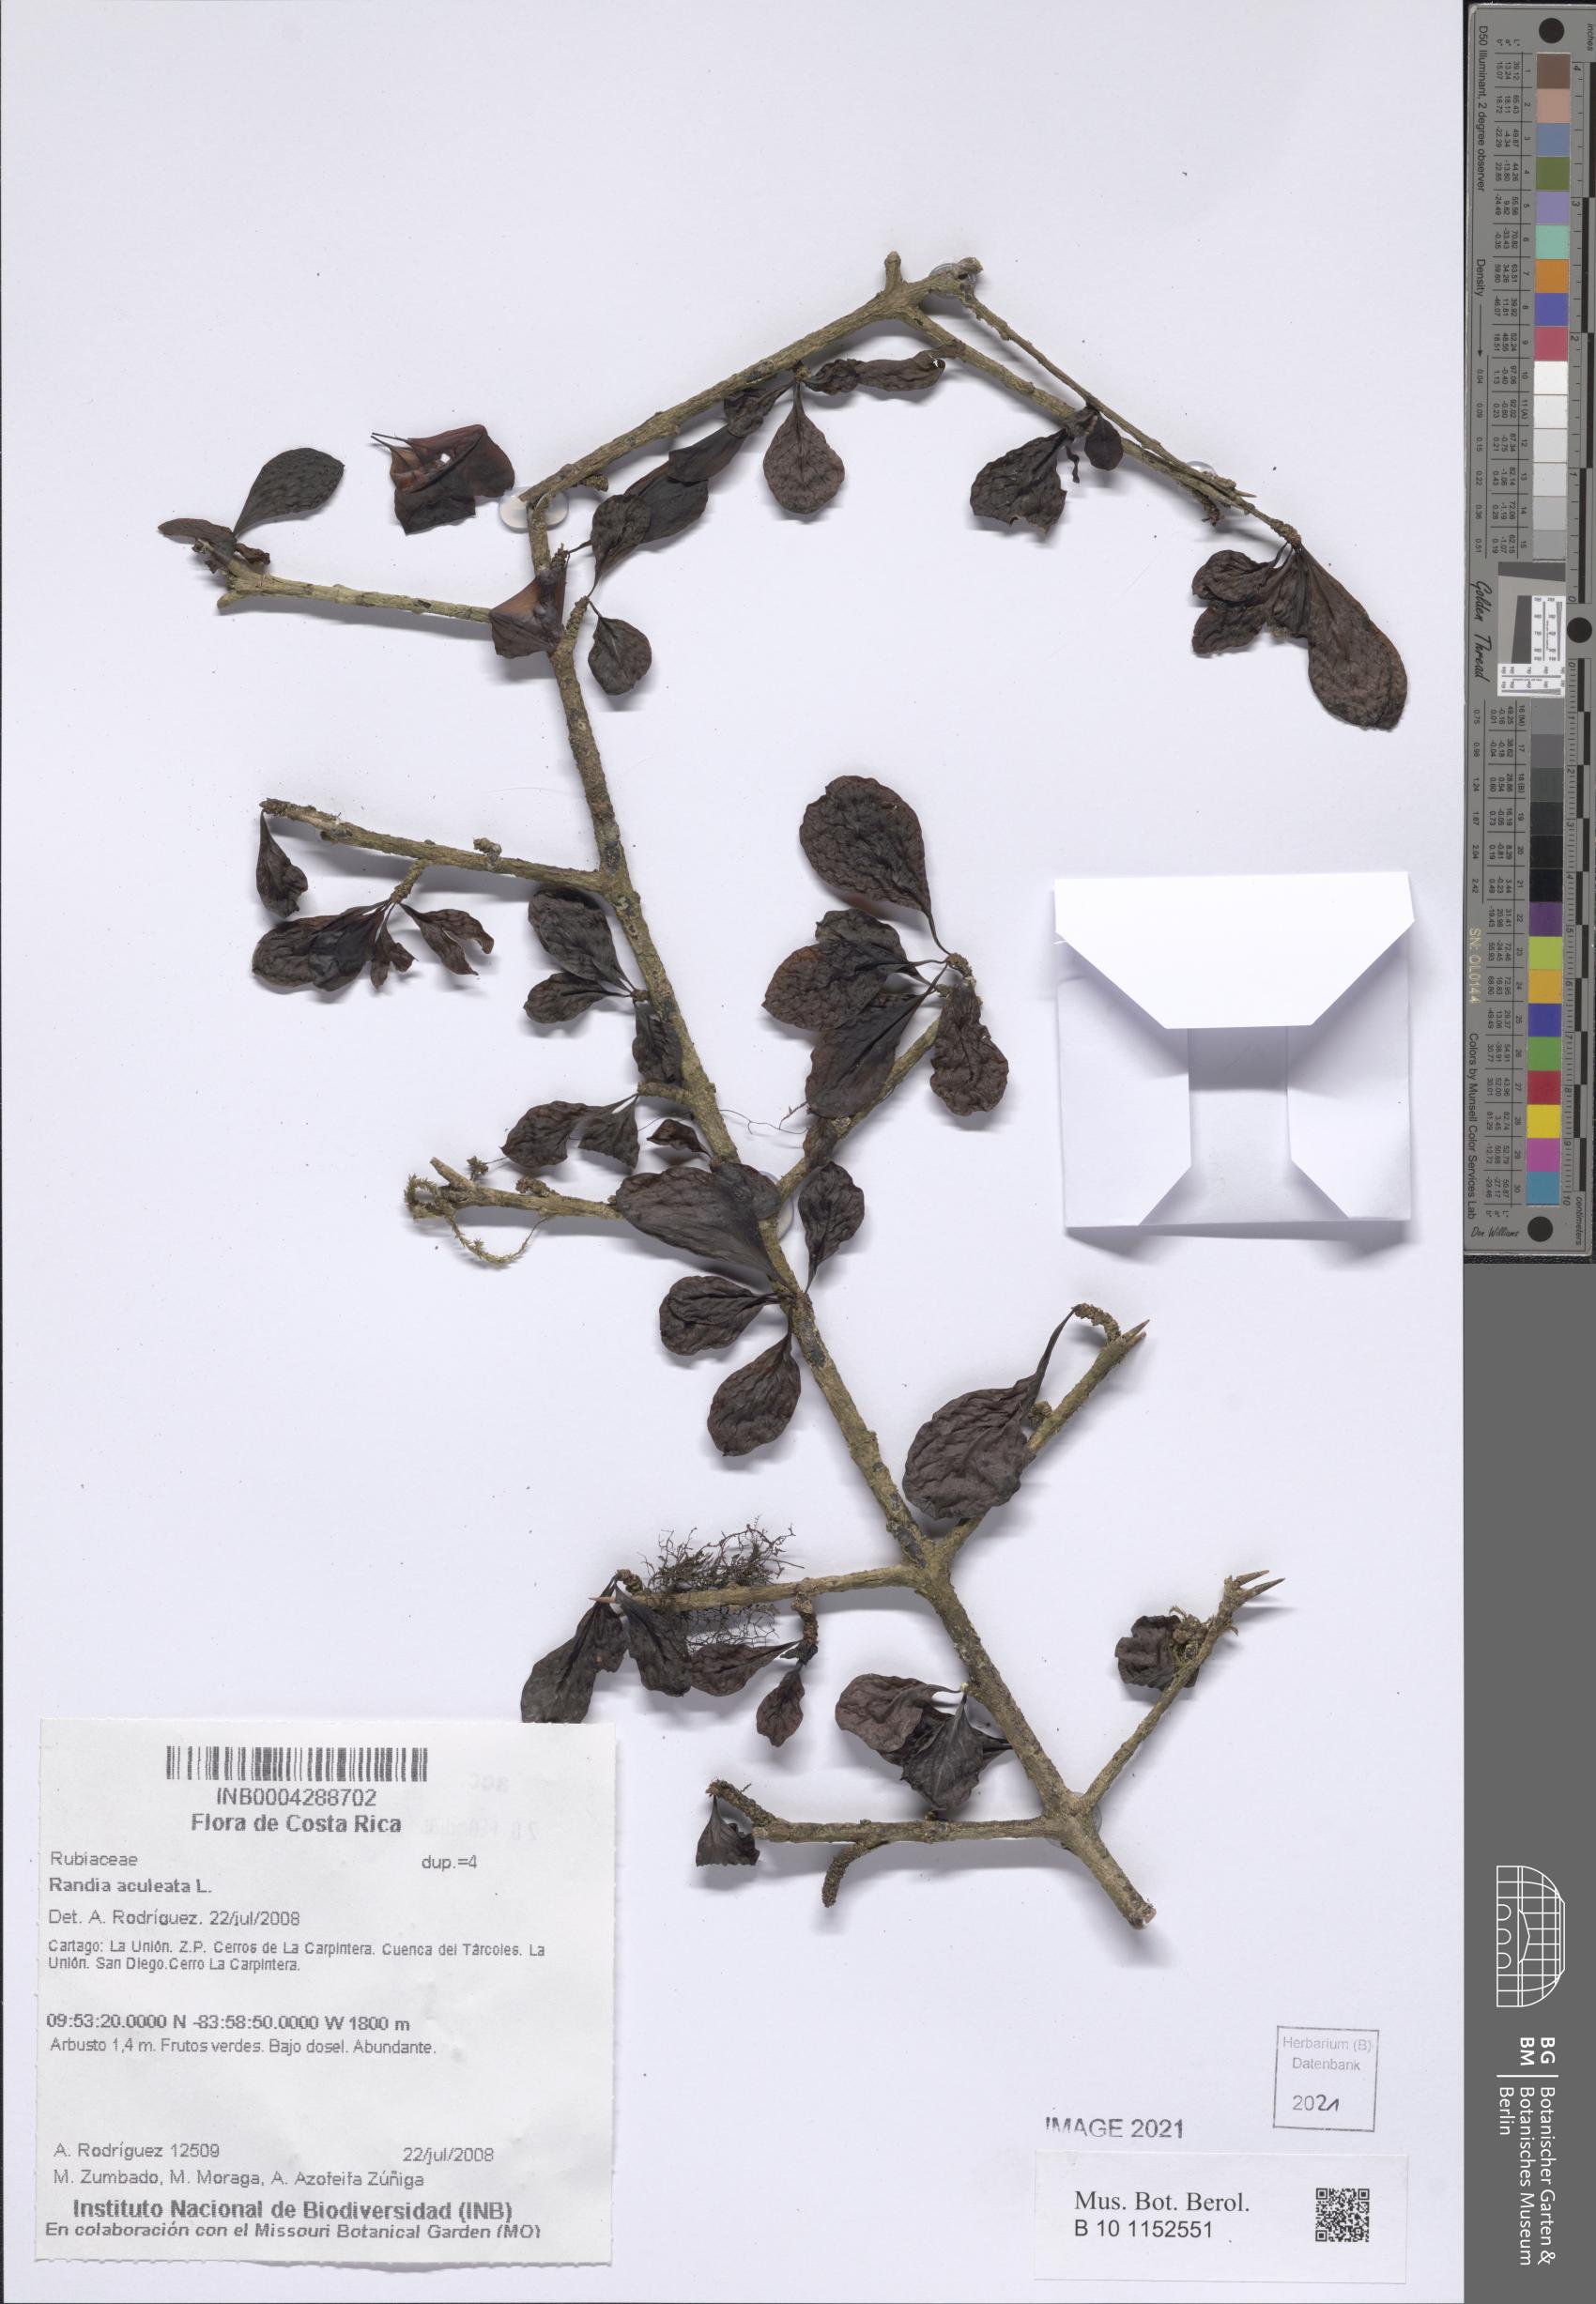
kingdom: Plantae
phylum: Tracheophyta
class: Magnoliopsida
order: Gentianales
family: Rubiaceae
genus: Randia
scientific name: Randia aculeata
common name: Inkberry
